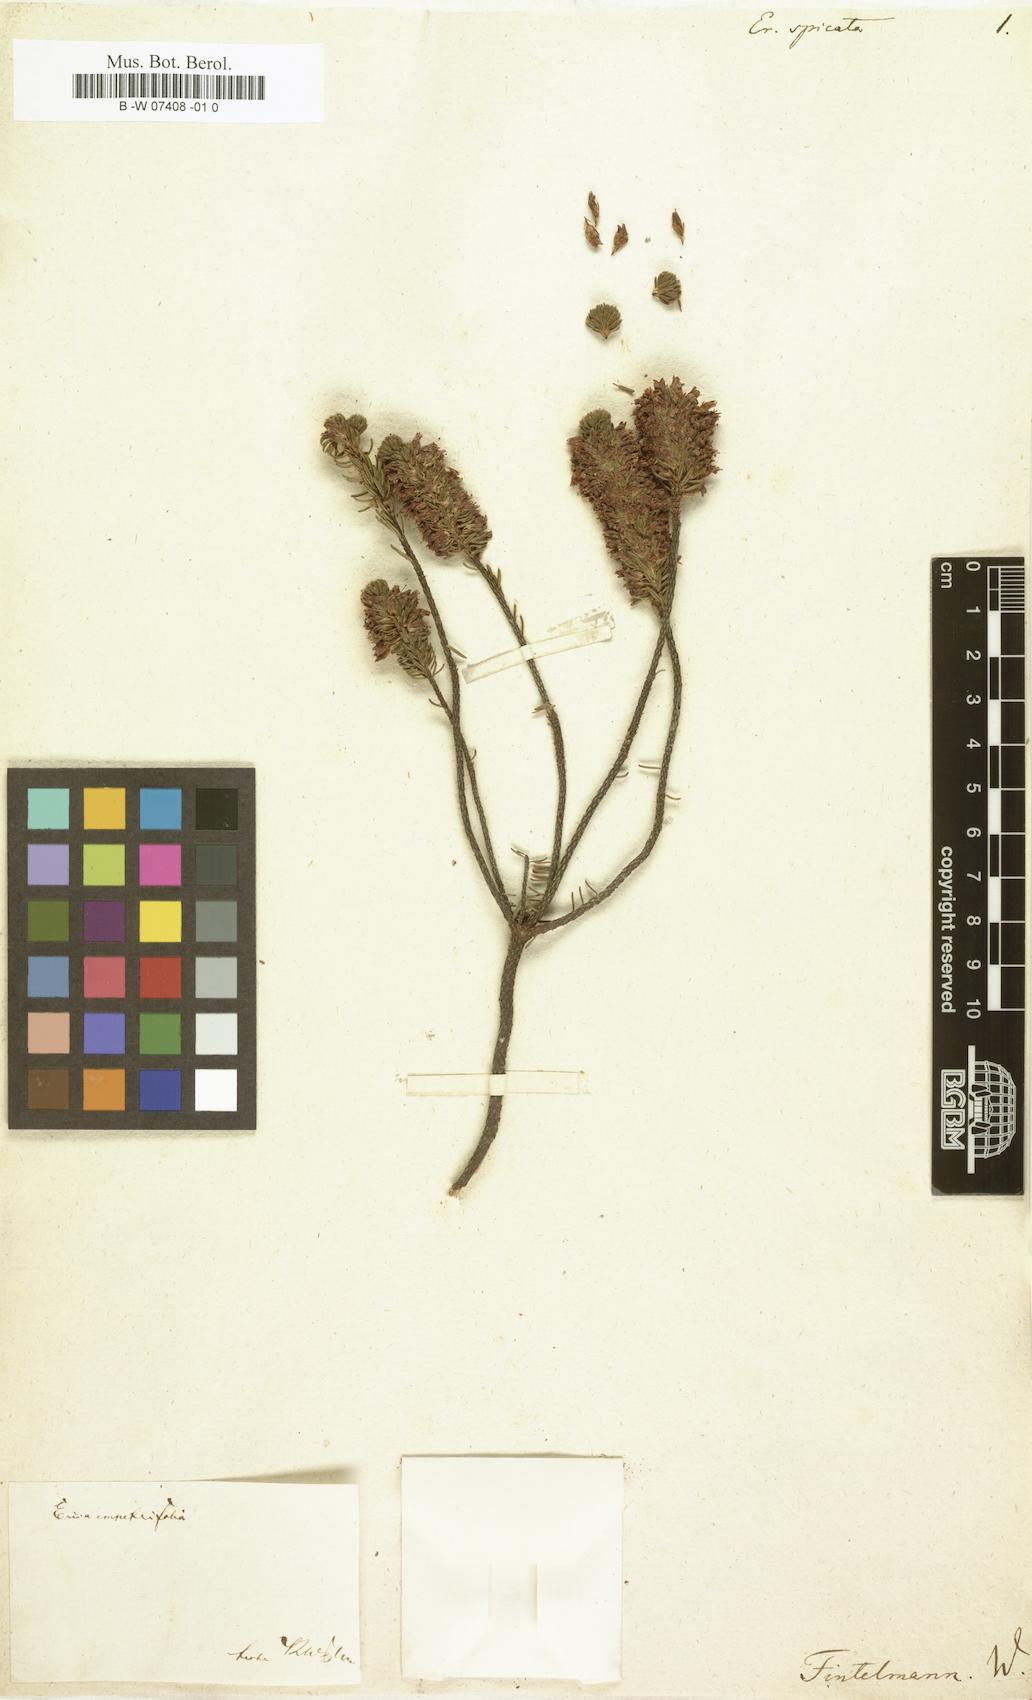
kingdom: Plantae
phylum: Tracheophyta
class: Magnoliopsida
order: Ericales
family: Ericaceae
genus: Erica
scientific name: Erica spicata
